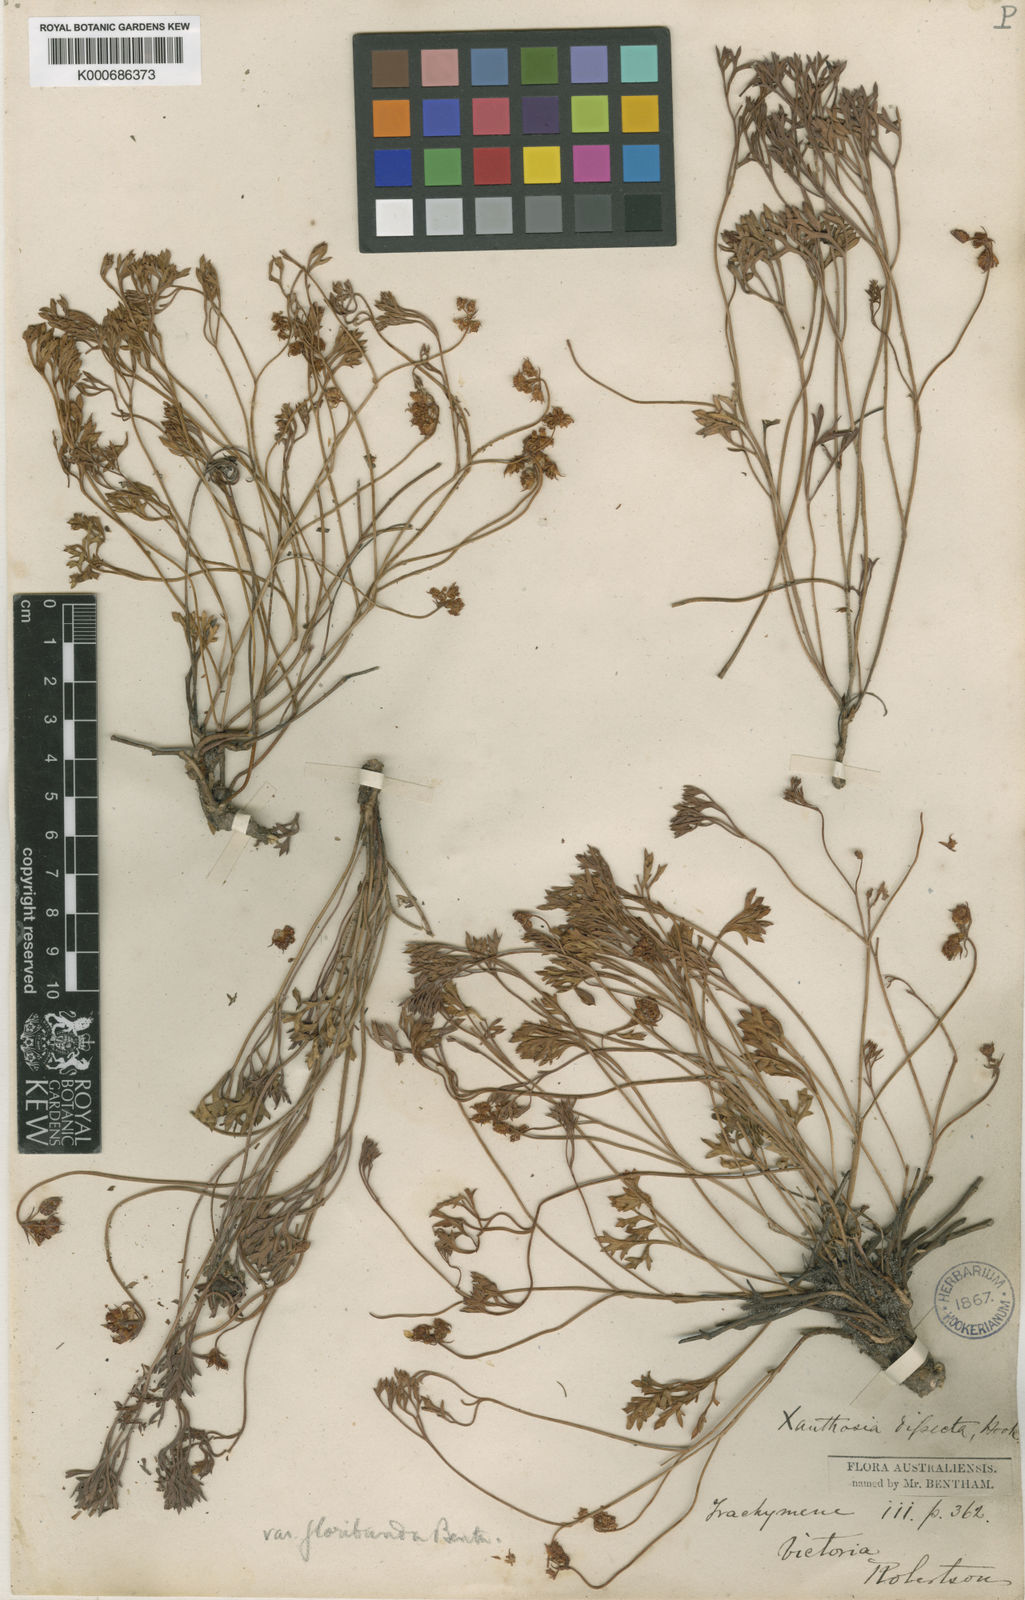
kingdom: Plantae
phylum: Tracheophyta
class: Magnoliopsida
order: Apiales
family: Apiaceae
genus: Xanthosia
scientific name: Xanthosia dissecta
